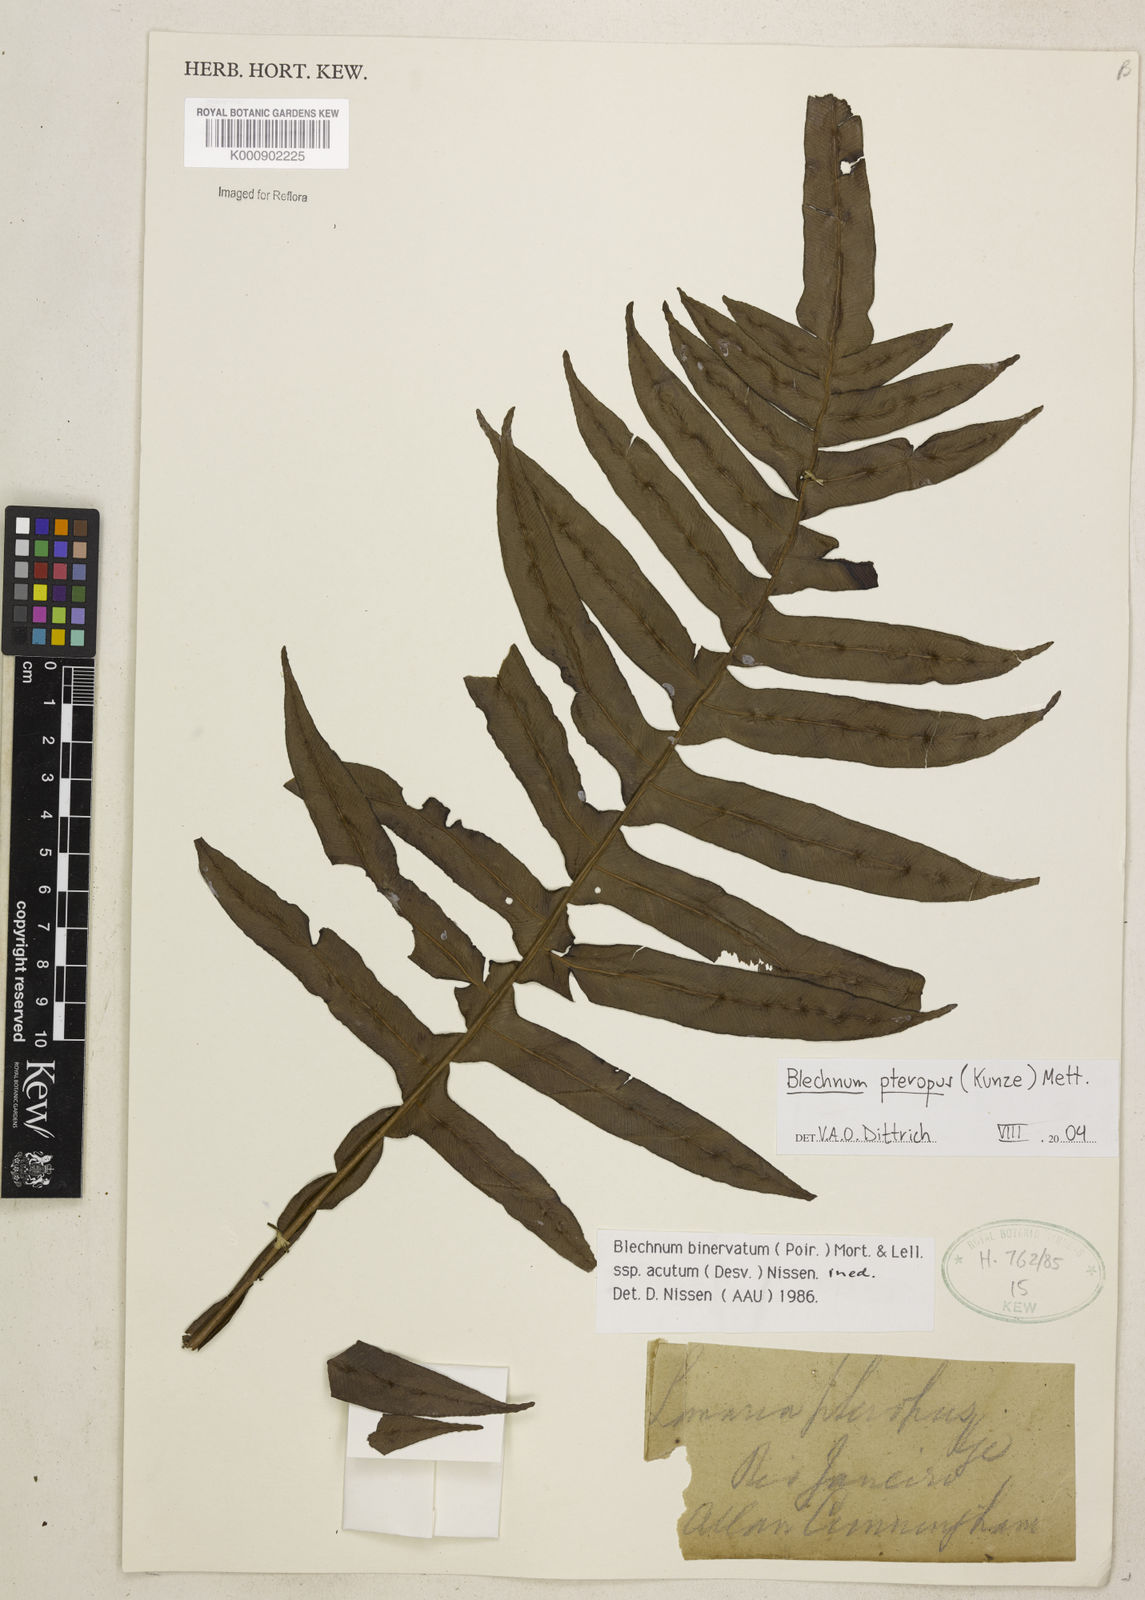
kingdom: Plantae
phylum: Tracheophyta
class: Polypodiopsida
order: Polypodiales
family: Blechnaceae
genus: Lomaridium
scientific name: Lomaridium pteropus
